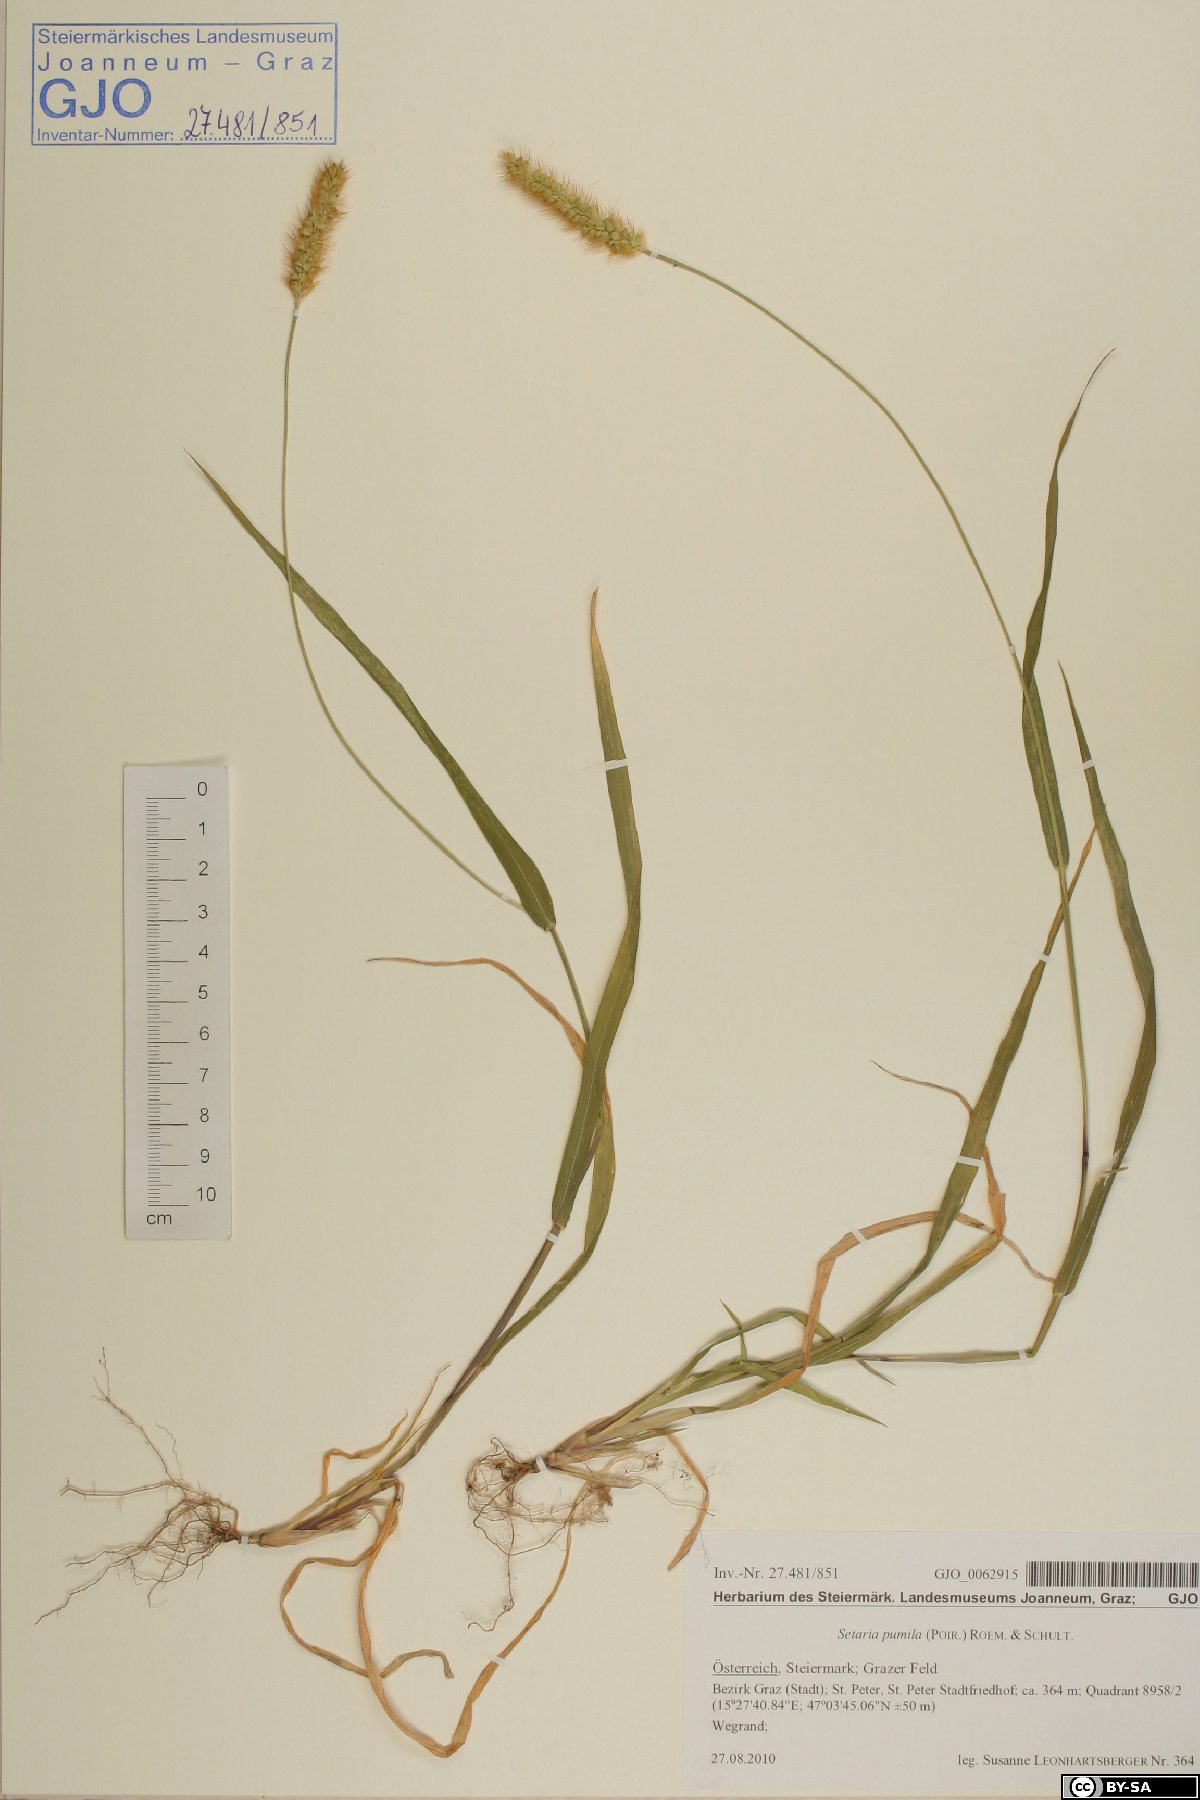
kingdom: Plantae
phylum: Tracheophyta
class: Liliopsida
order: Poales
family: Poaceae
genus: Setaria
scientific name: Setaria pumila
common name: Yellow bristle-grass
